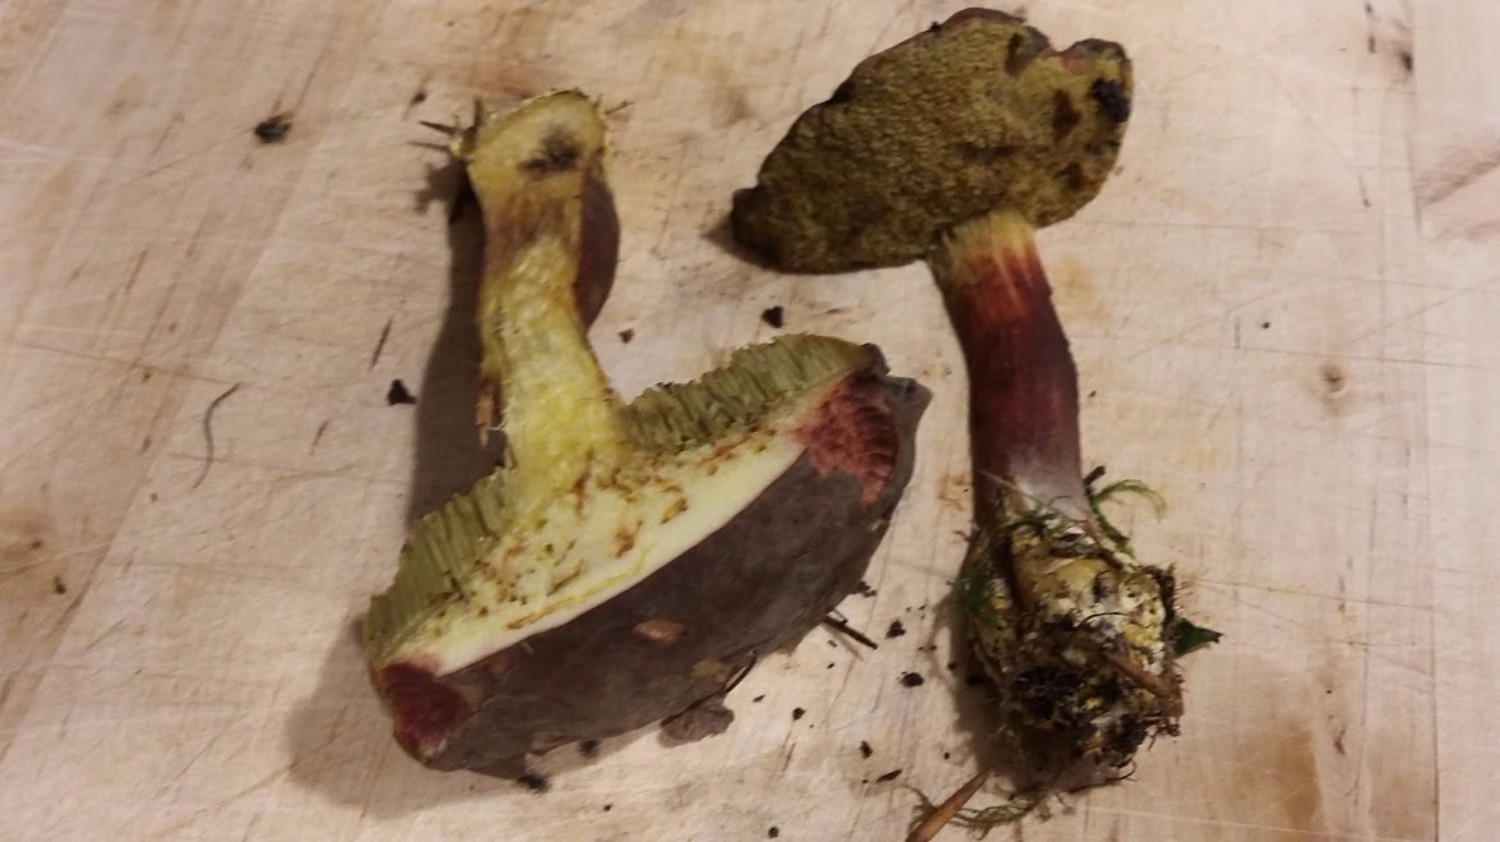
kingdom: Fungi
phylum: Basidiomycota
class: Agaricomycetes
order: Boletales
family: Boletaceae
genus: Xerocomellus
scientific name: Xerocomellus chrysenteron
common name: rødsprukken rørhat
